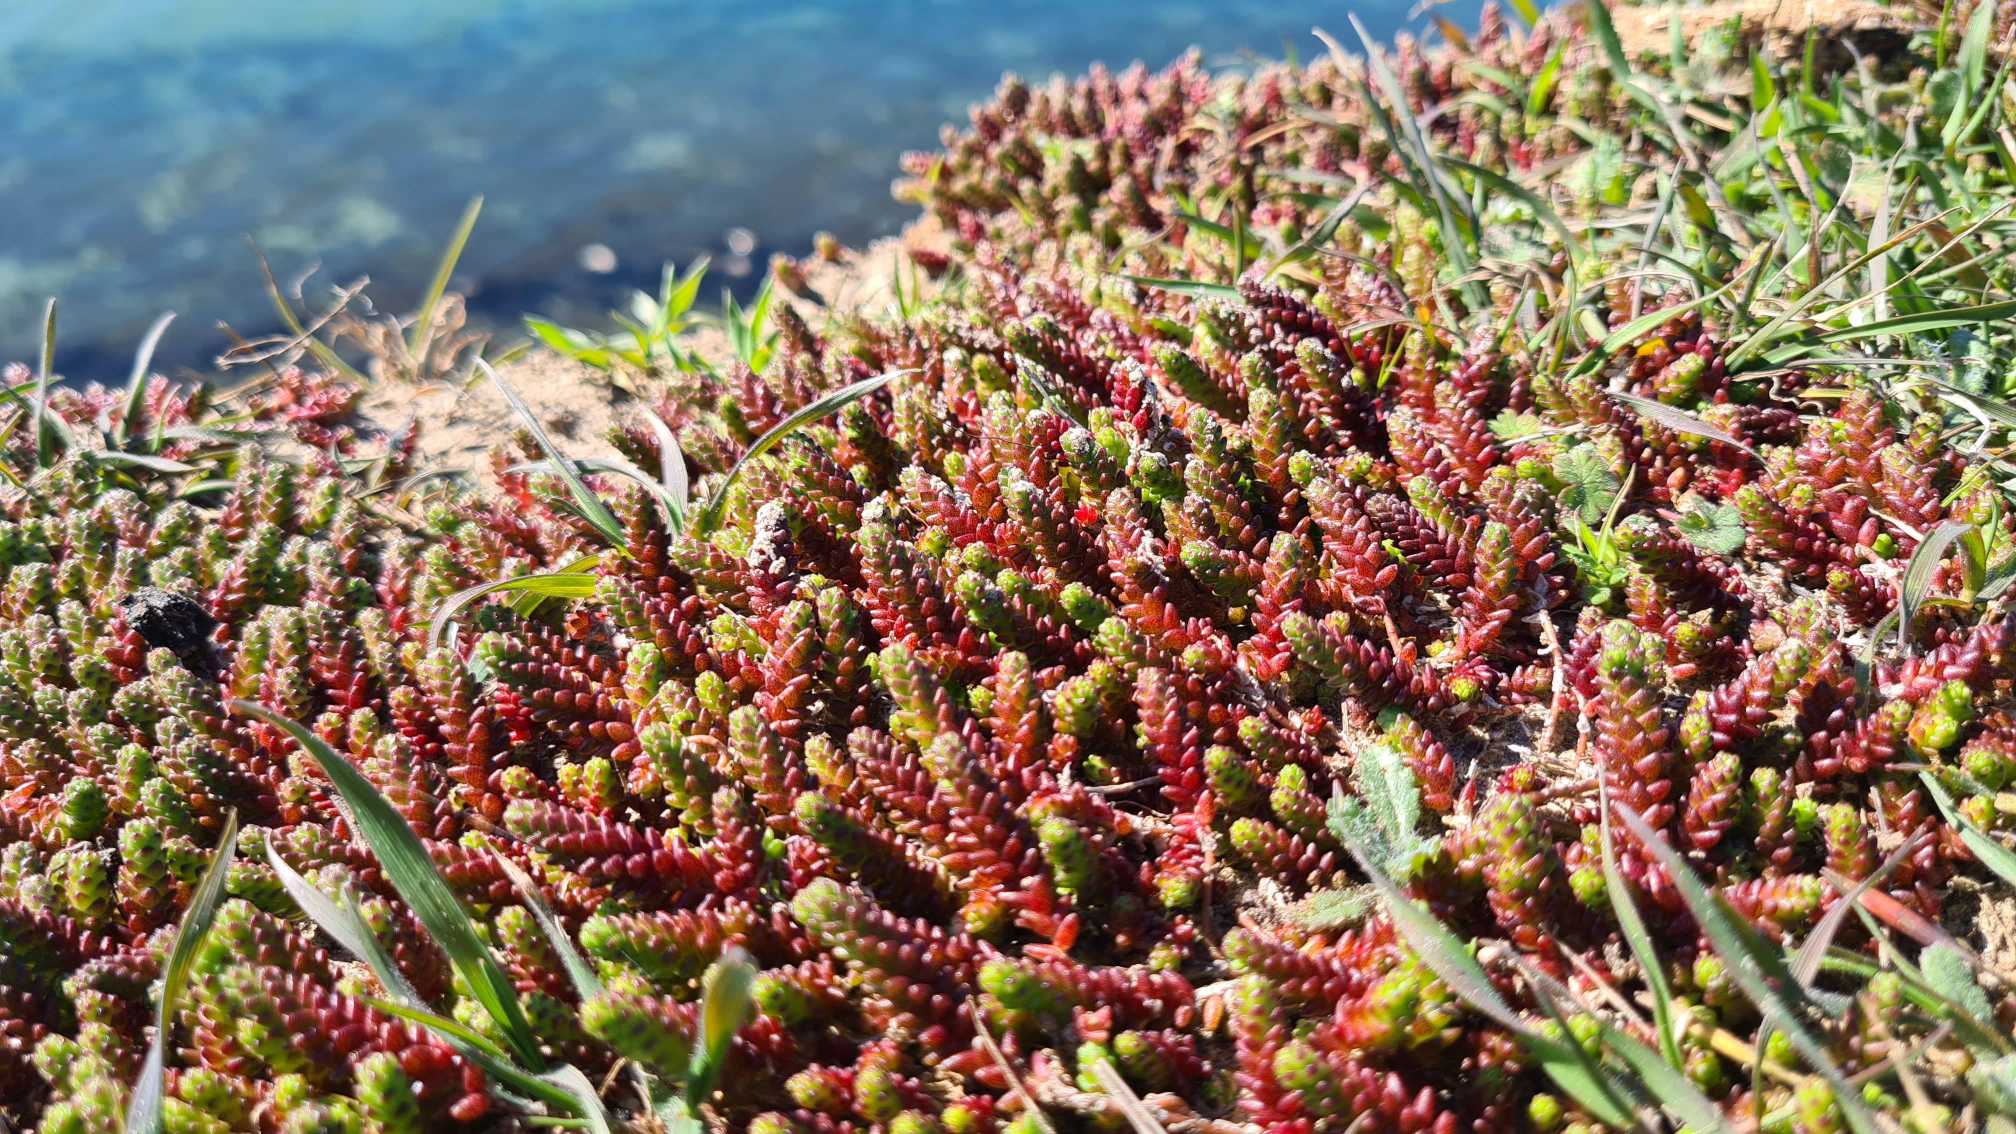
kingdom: Plantae
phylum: Tracheophyta
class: Magnoliopsida
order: Saxifragales
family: Crassulaceae
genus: Sedum
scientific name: Sedum acre
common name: Bidende stenurt
